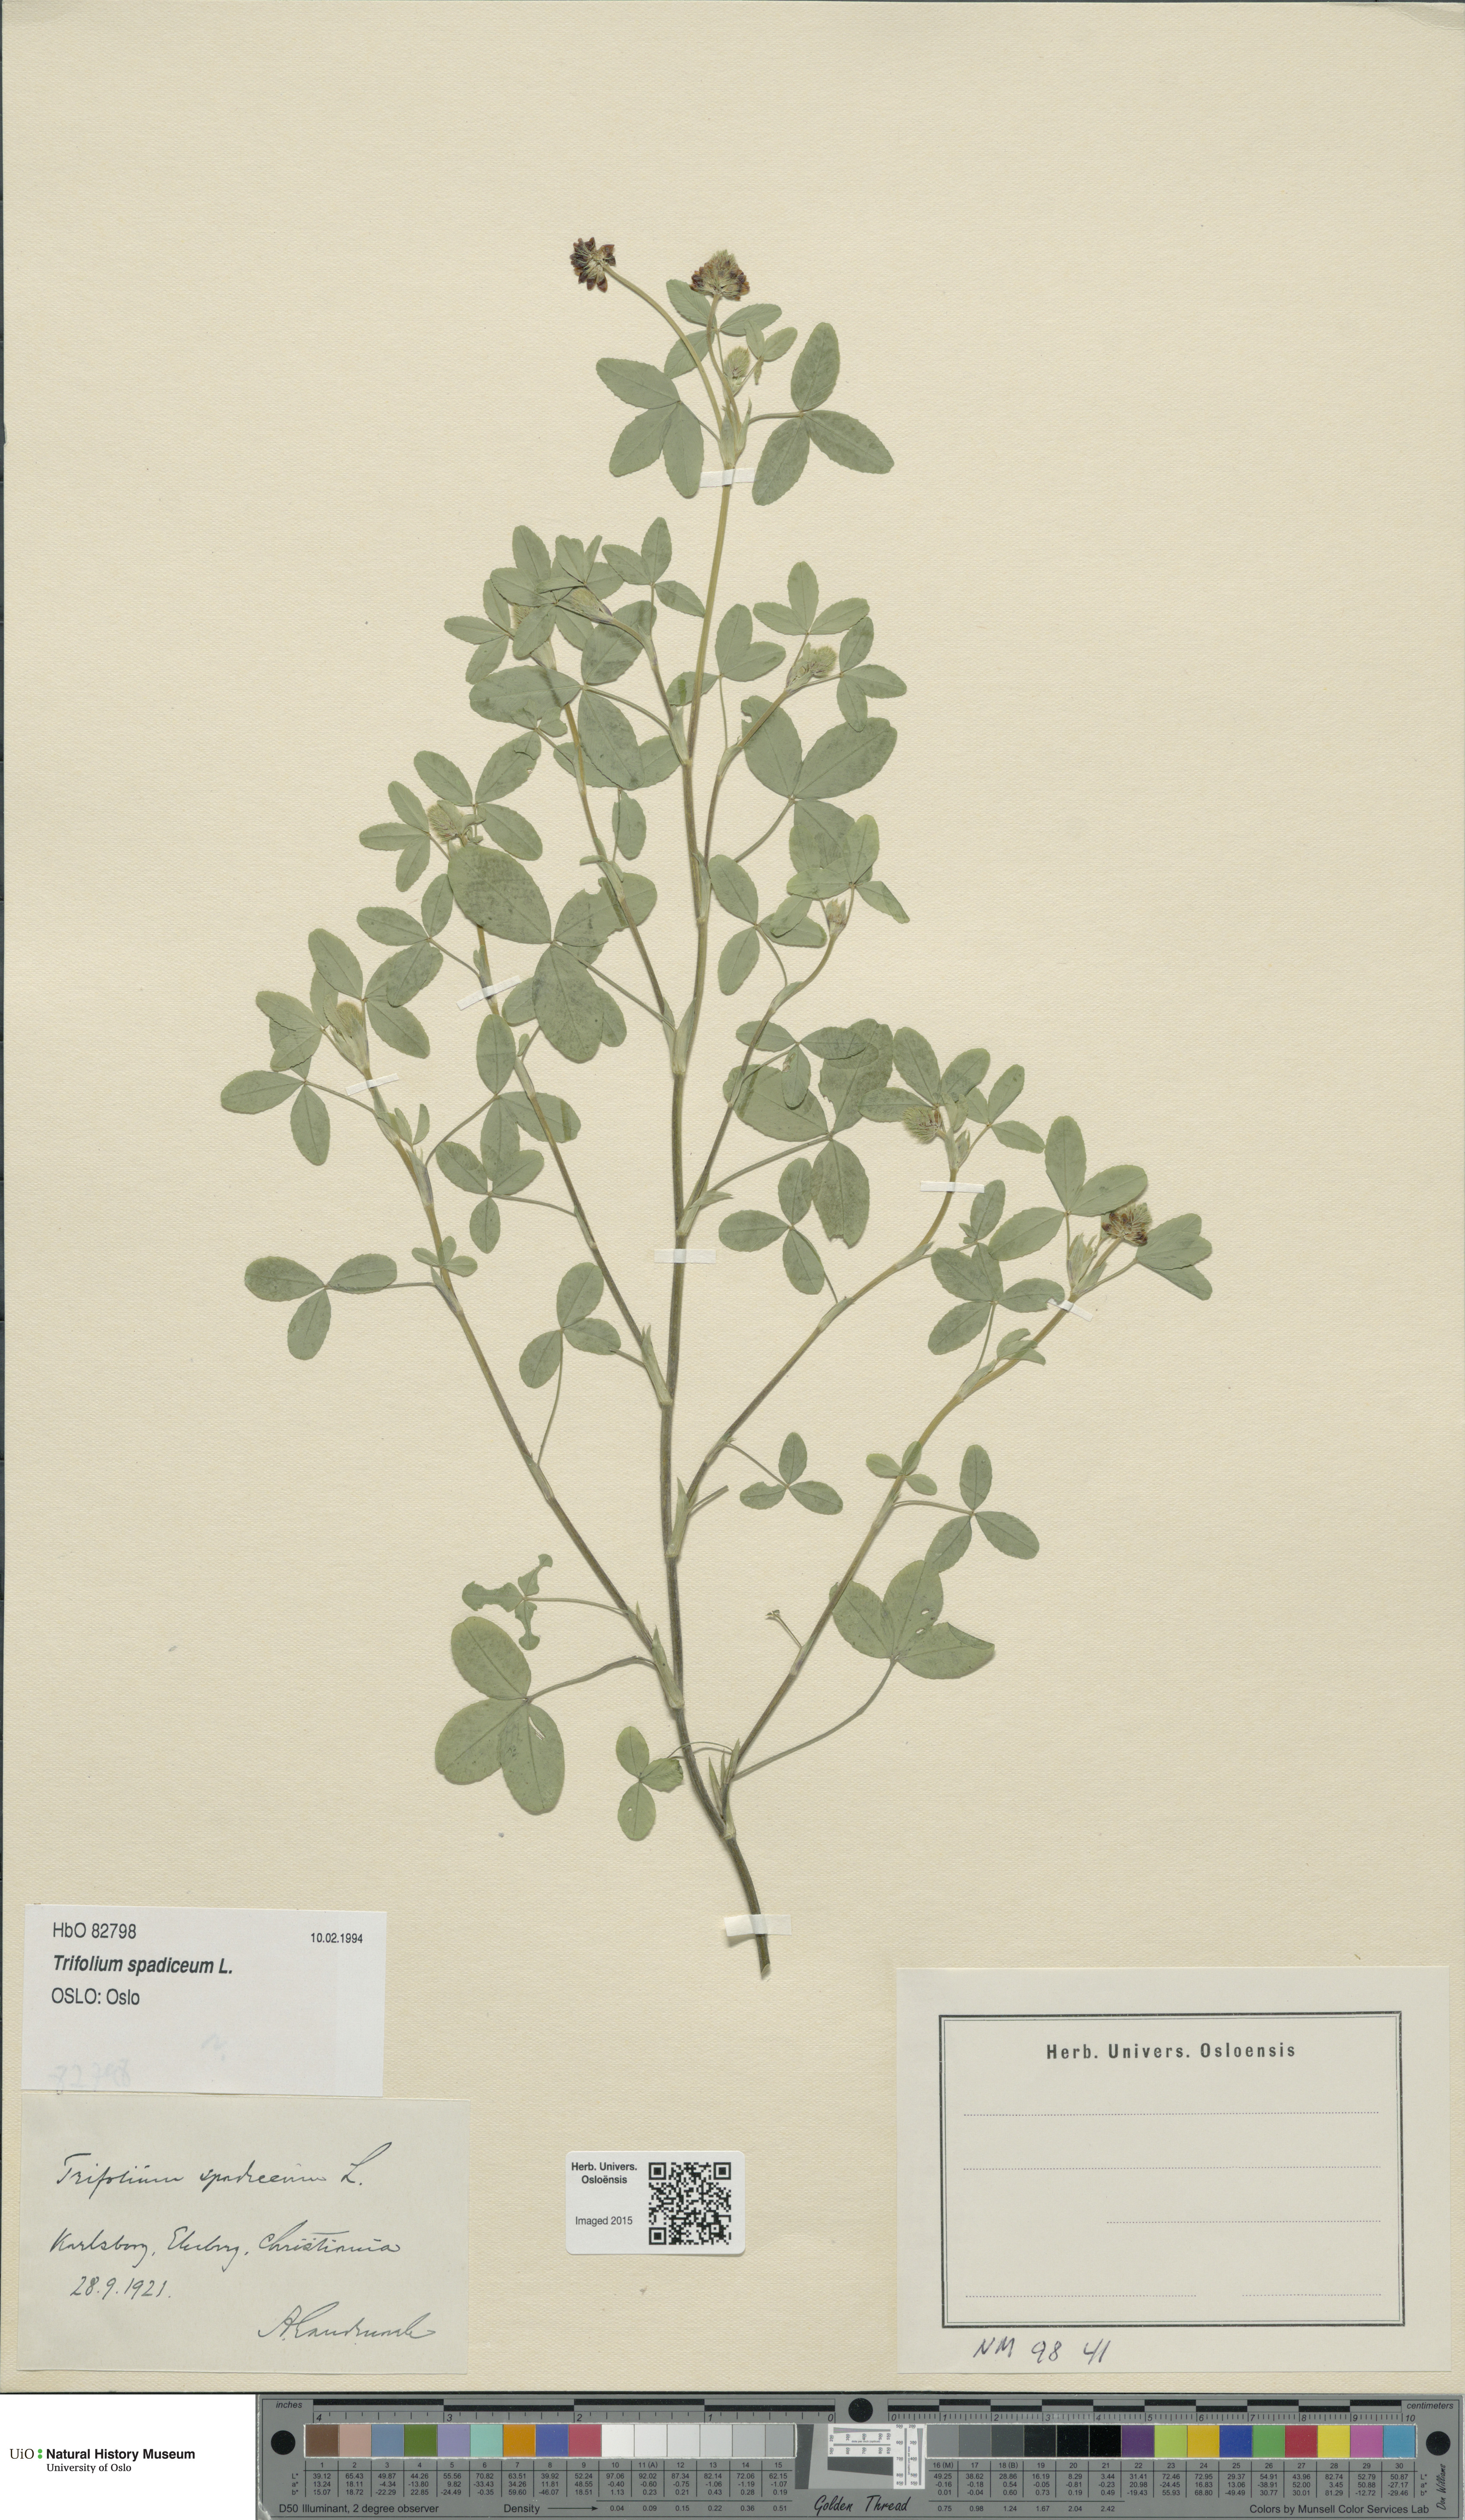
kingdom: Plantae
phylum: Tracheophyta
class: Magnoliopsida
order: Fabales
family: Fabaceae
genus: Trifolium
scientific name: Trifolium spadiceum
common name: Brown moor clover
